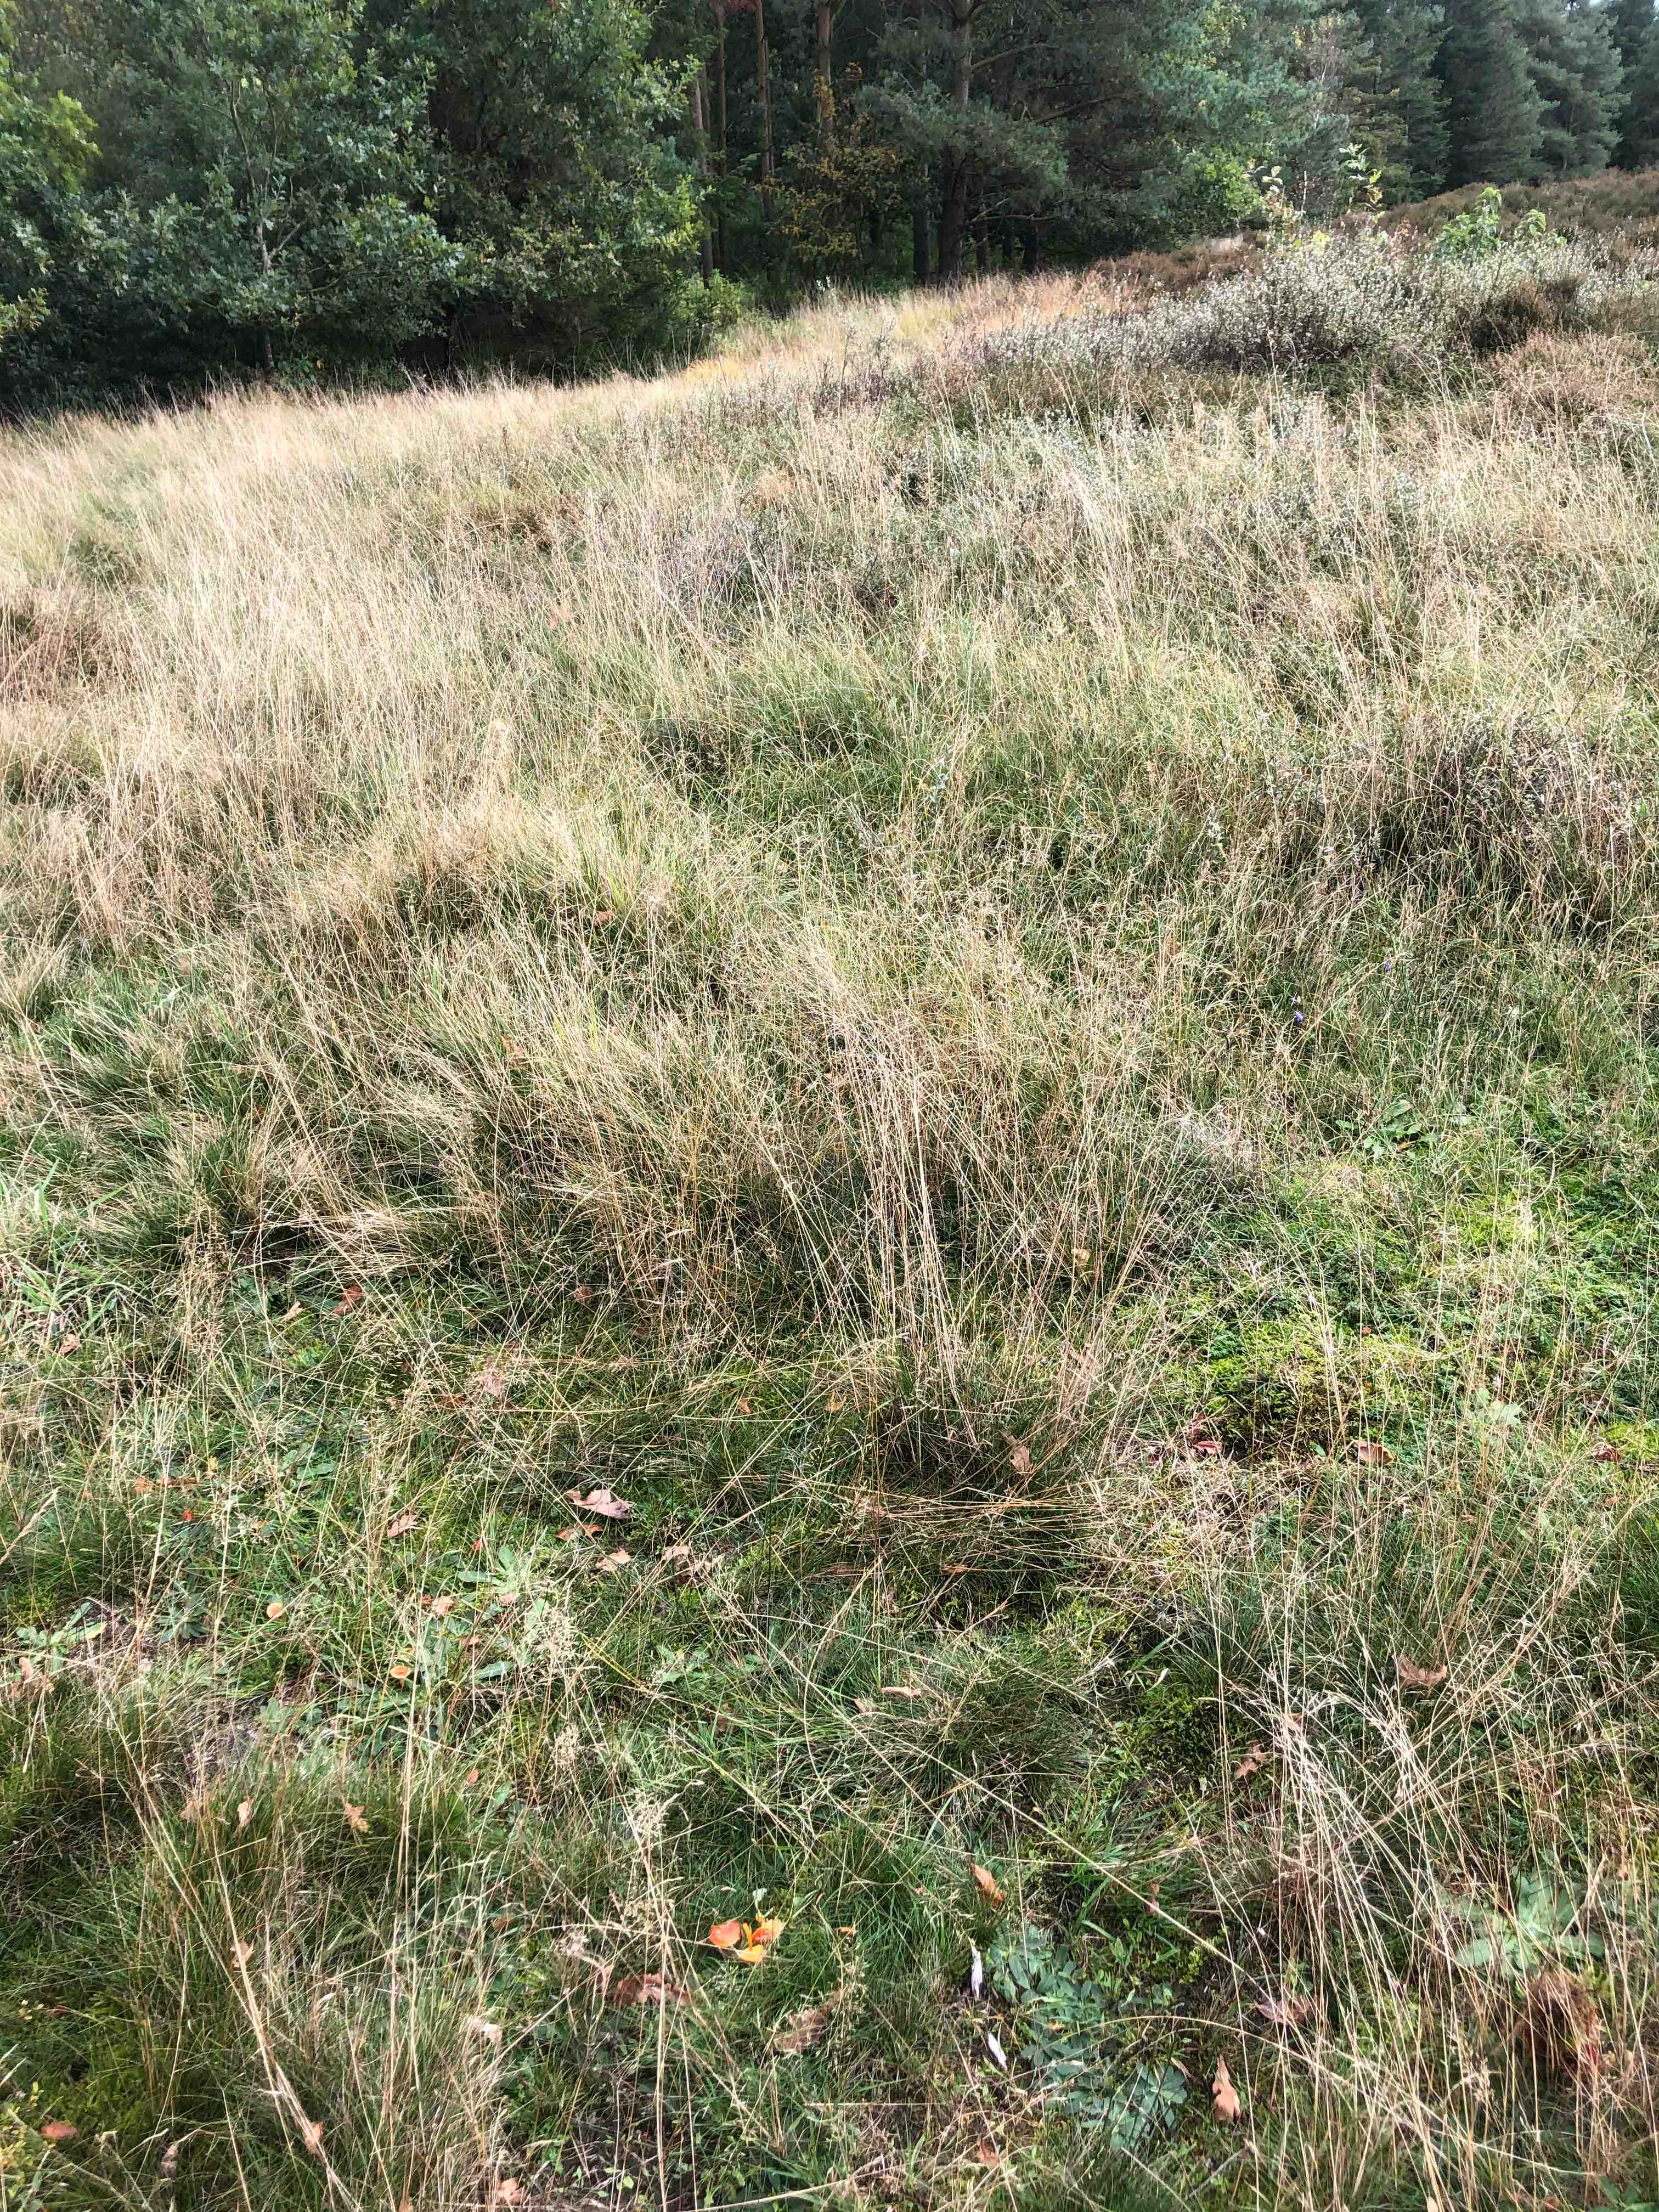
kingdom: Fungi
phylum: Basidiomycota
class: Agaricomycetes
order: Agaricales
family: Hygrophoraceae
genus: Hygrocybe
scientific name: Hygrocybe miniata
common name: mønje-vokshat
